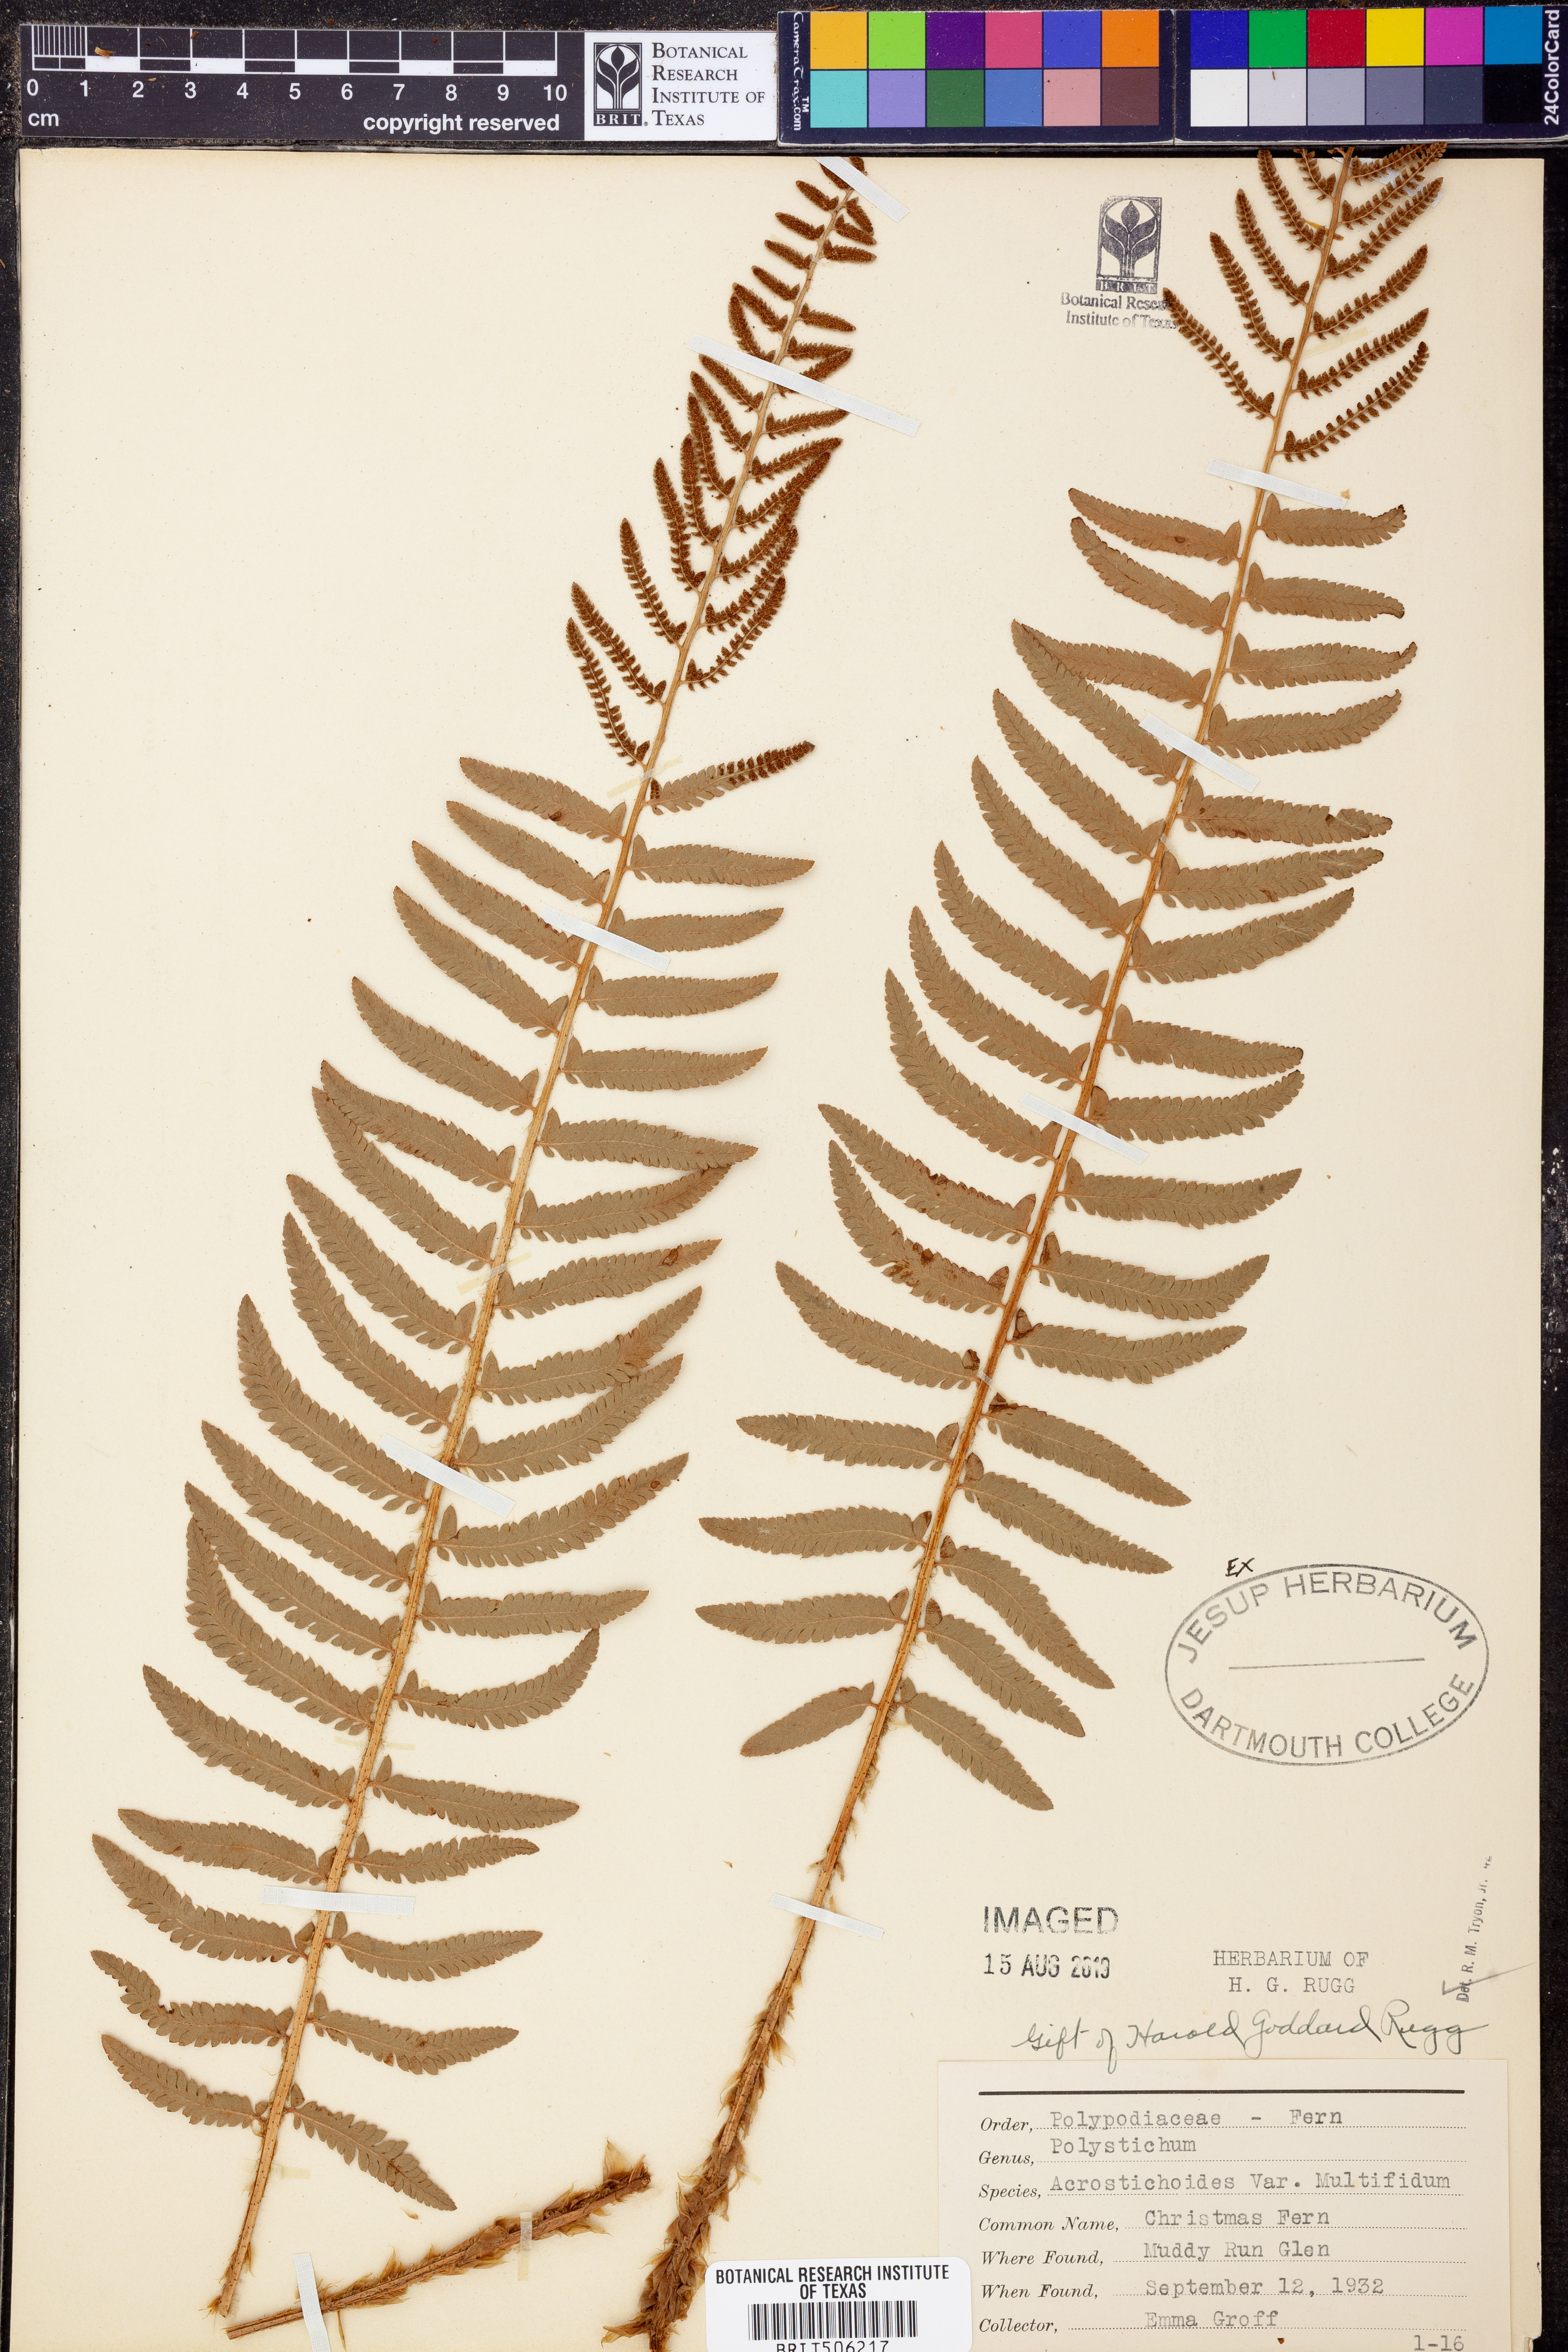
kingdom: Plantae
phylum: Tracheophyta
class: Polypodiopsida
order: Polypodiales
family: Dryopteridaceae
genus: Polystichum
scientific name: Polystichum acrostichoides
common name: Christmas fern
